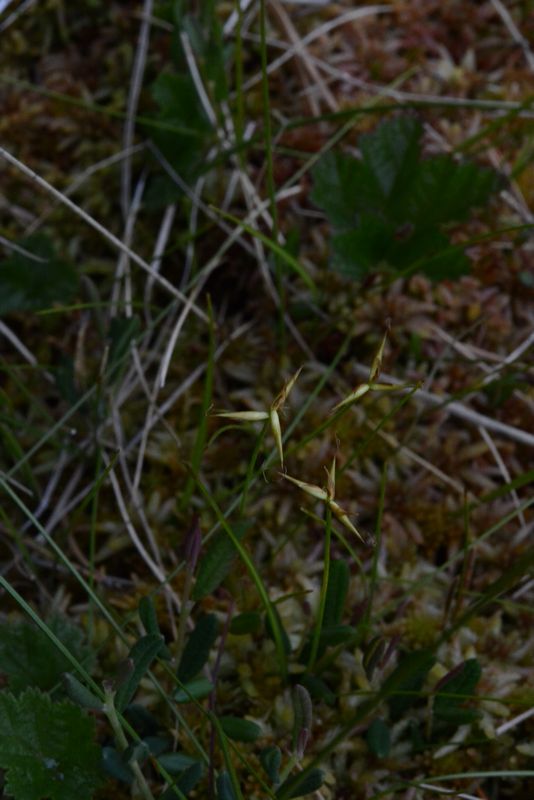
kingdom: Plantae
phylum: Tracheophyta
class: Liliopsida
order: Poales
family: Cyperaceae
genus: Carex
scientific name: Carex pauciflora
